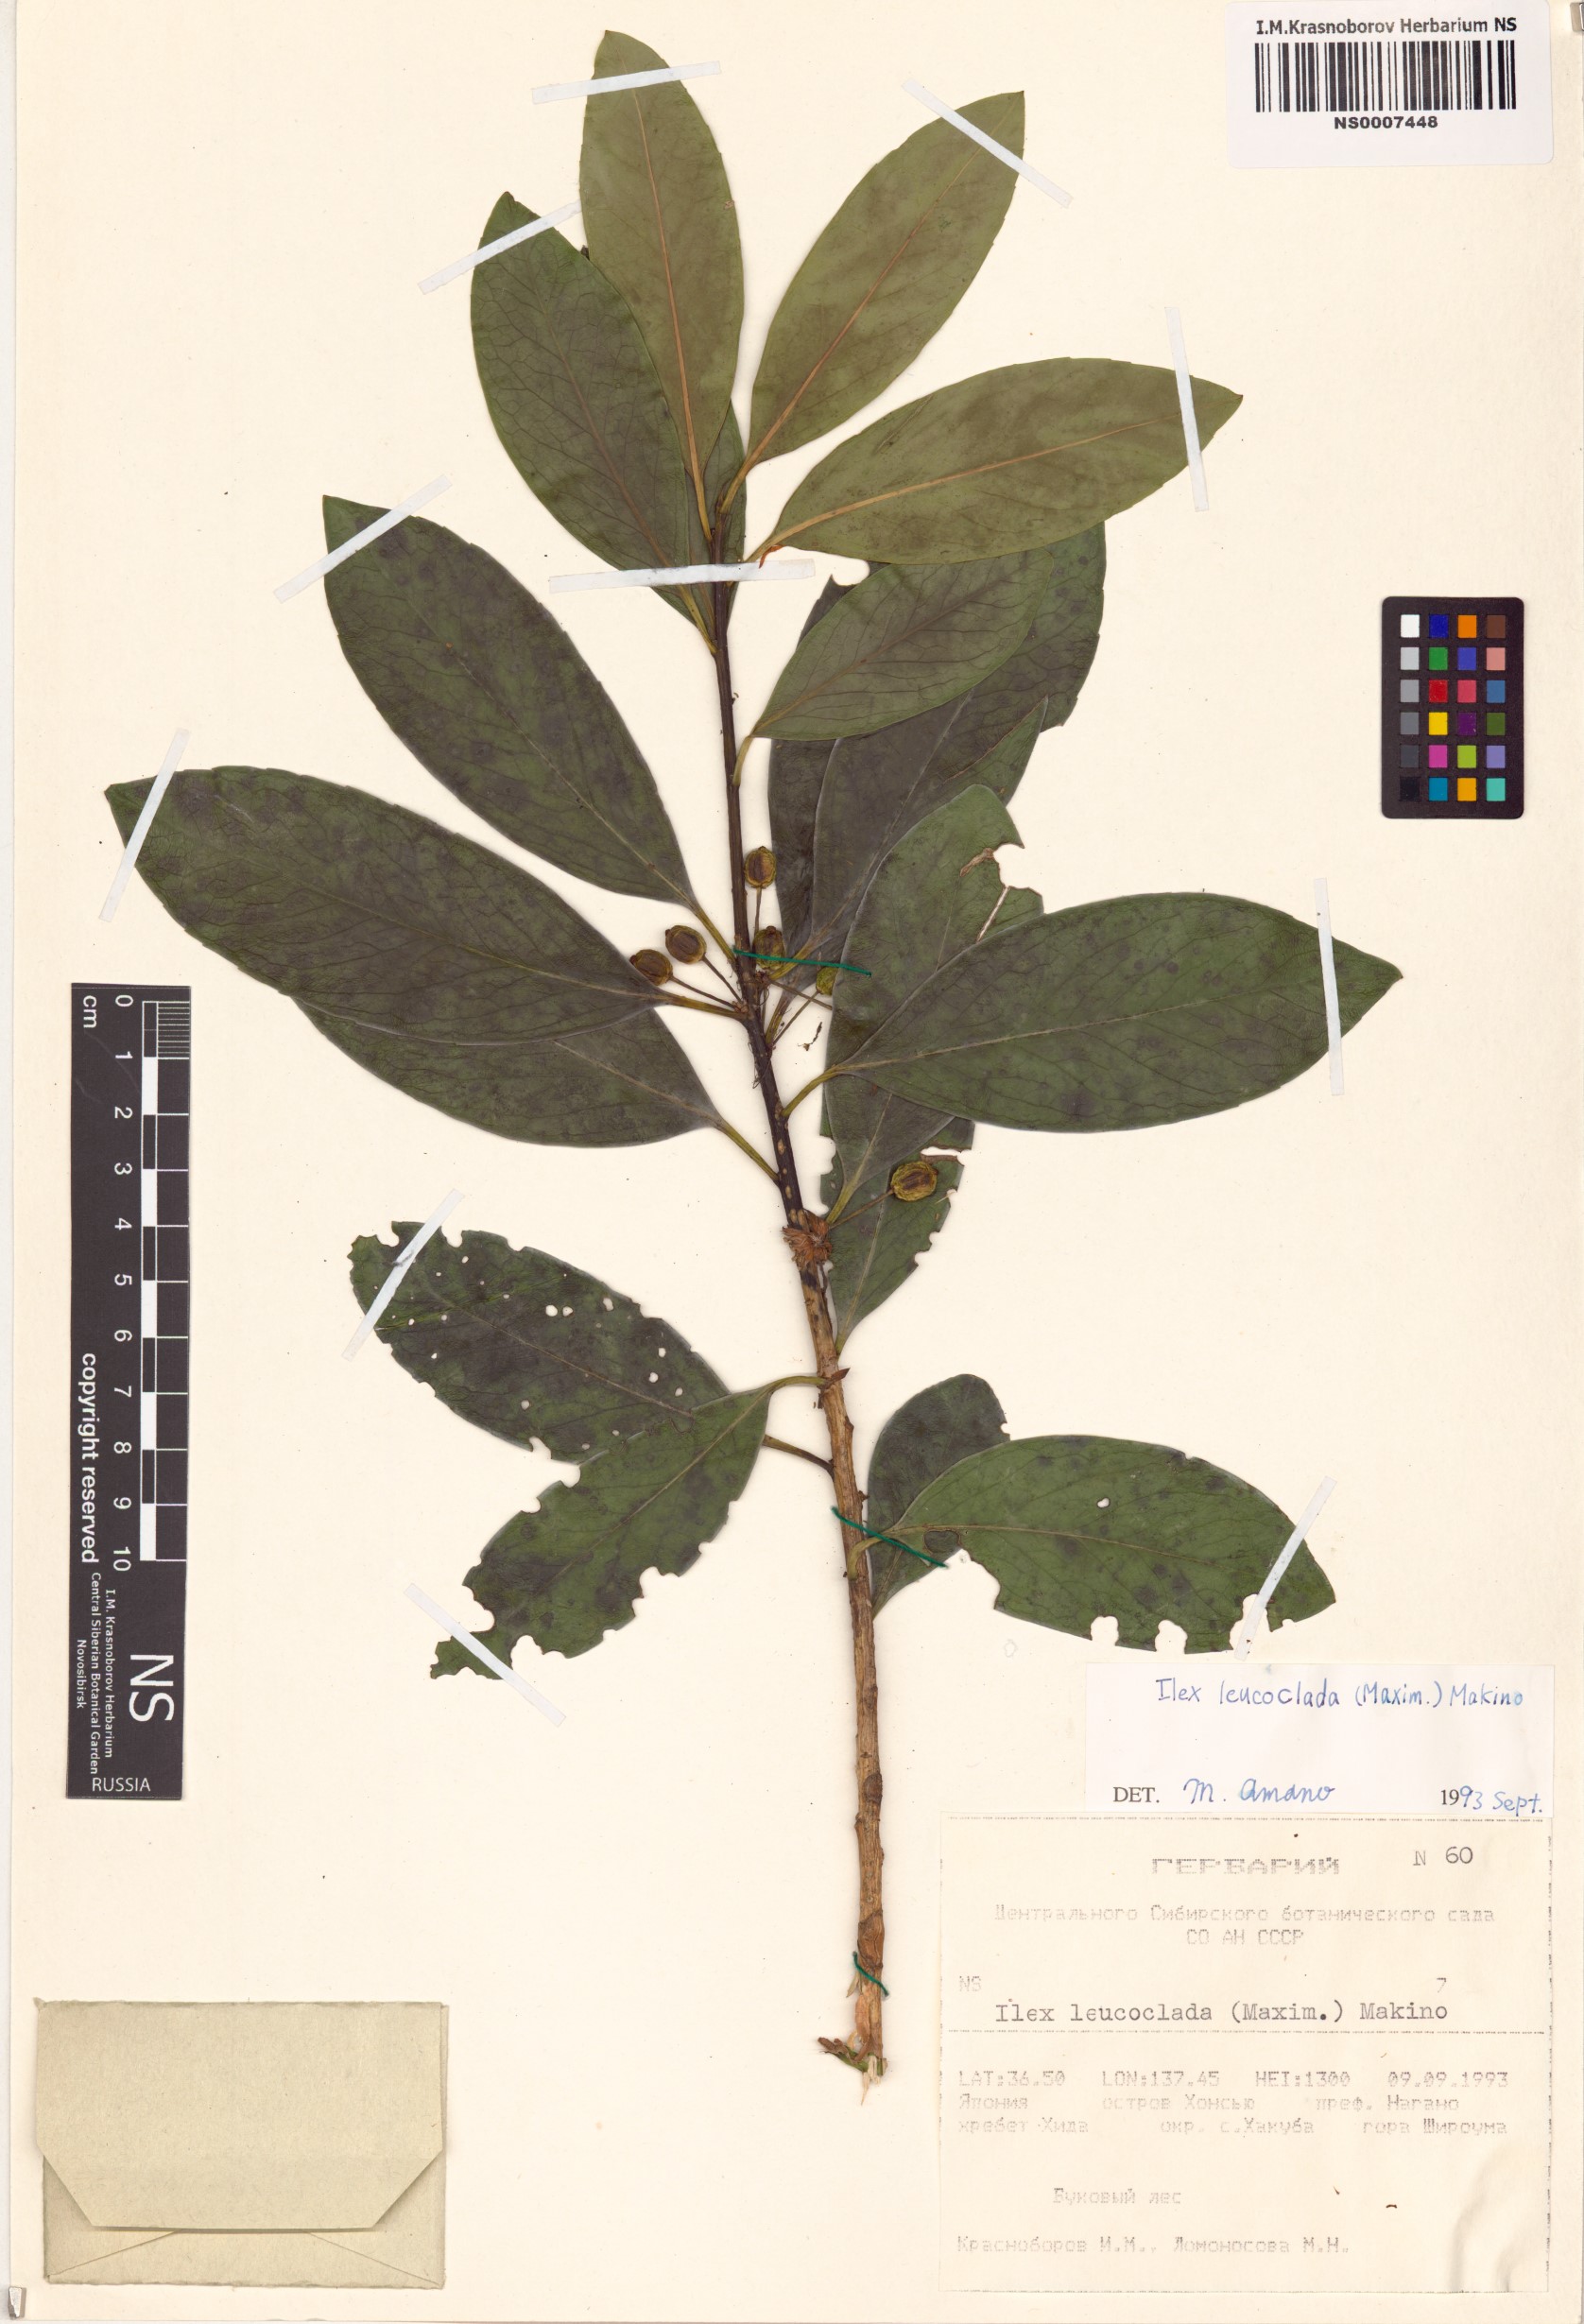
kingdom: Plantae
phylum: Tracheophyta
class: Magnoliopsida
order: Aquifoliales
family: Aquifoliaceae
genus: Ilex
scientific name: Ilex leucoclada
